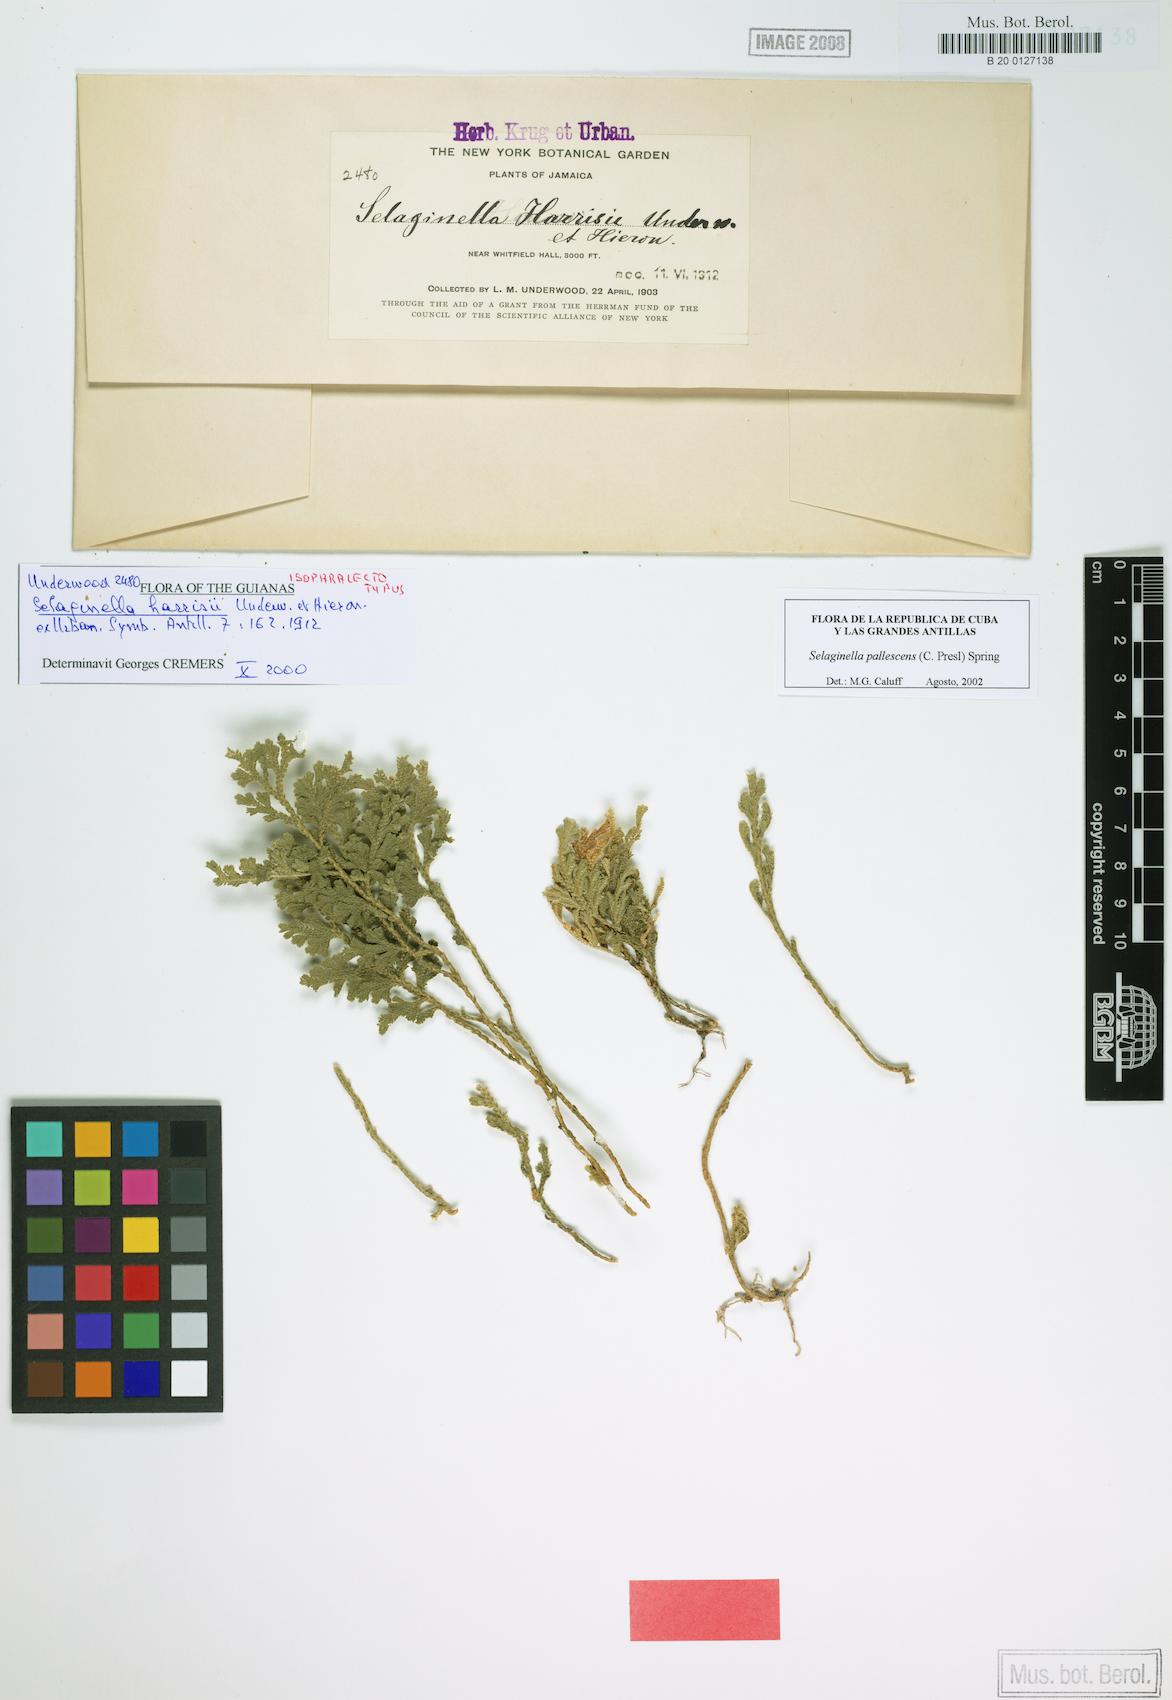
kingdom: Plantae
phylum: Tracheophyta
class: Lycopodiopsida
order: Selaginellales
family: Selaginellaceae
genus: Selaginella
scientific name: Selaginella harrisii
